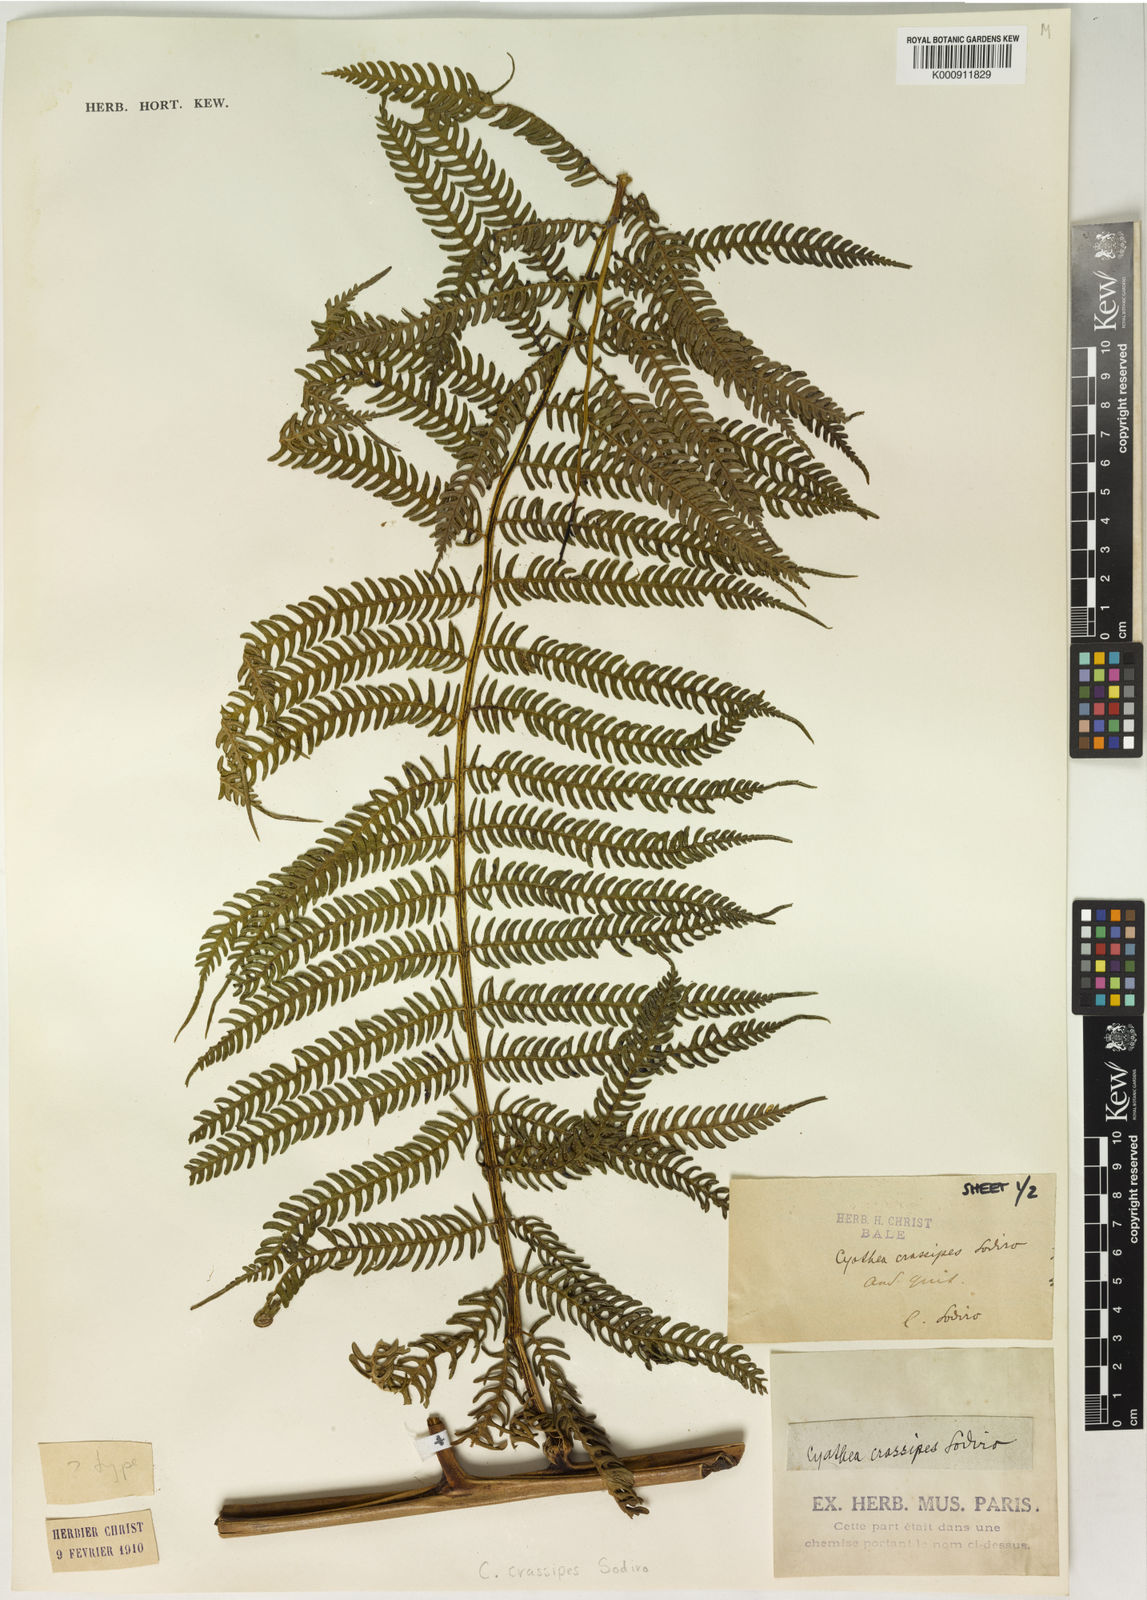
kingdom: Plantae
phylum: Tracheophyta
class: Polypodiopsida
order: Cyatheales
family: Cyatheaceae
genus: Sphaeropteris
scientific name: Sphaeropteris quindiuensis
